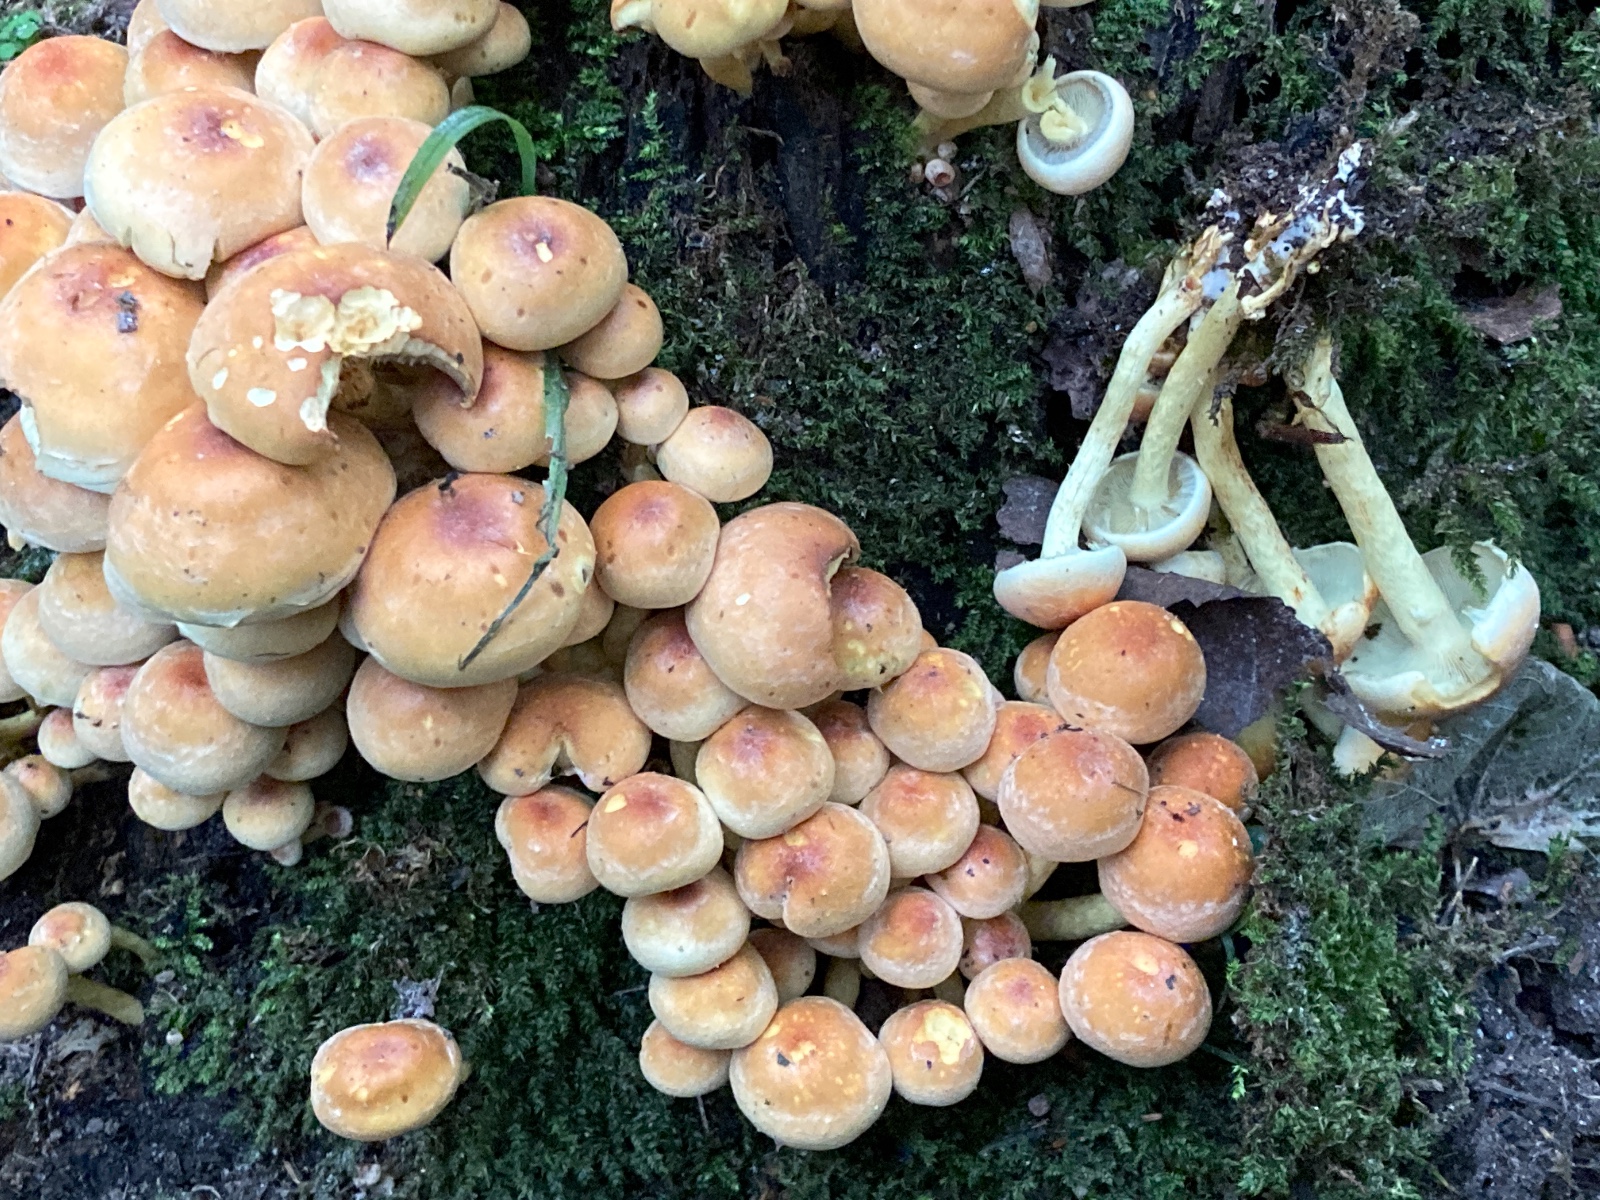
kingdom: Fungi
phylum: Basidiomycota
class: Agaricomycetes
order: Agaricales
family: Strophariaceae
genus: Hypholoma
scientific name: Hypholoma fasciculare
